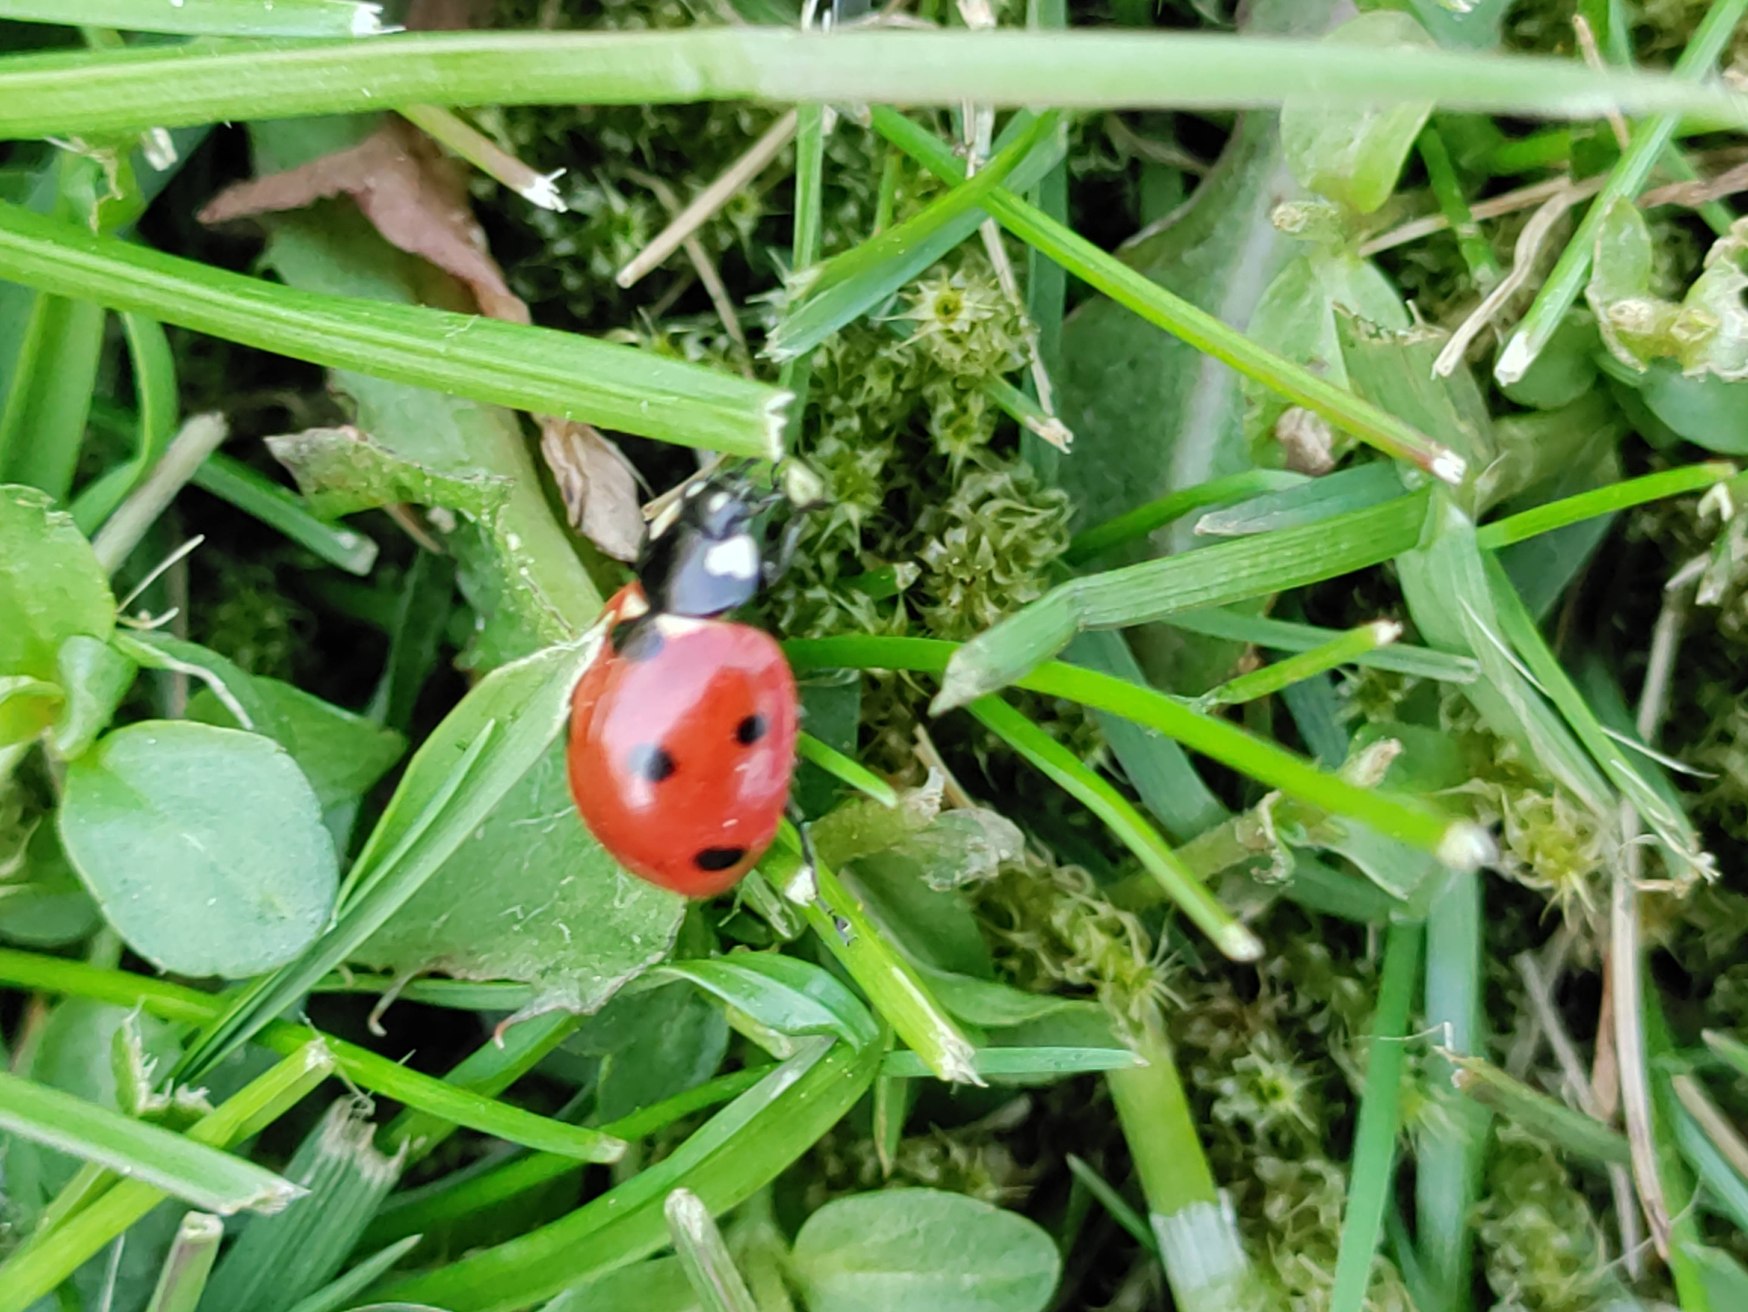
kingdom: Animalia
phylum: Arthropoda
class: Insecta
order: Coleoptera
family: Coccinellidae
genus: Coccinella
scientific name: Coccinella septempunctata
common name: Syvplettet mariehøne
